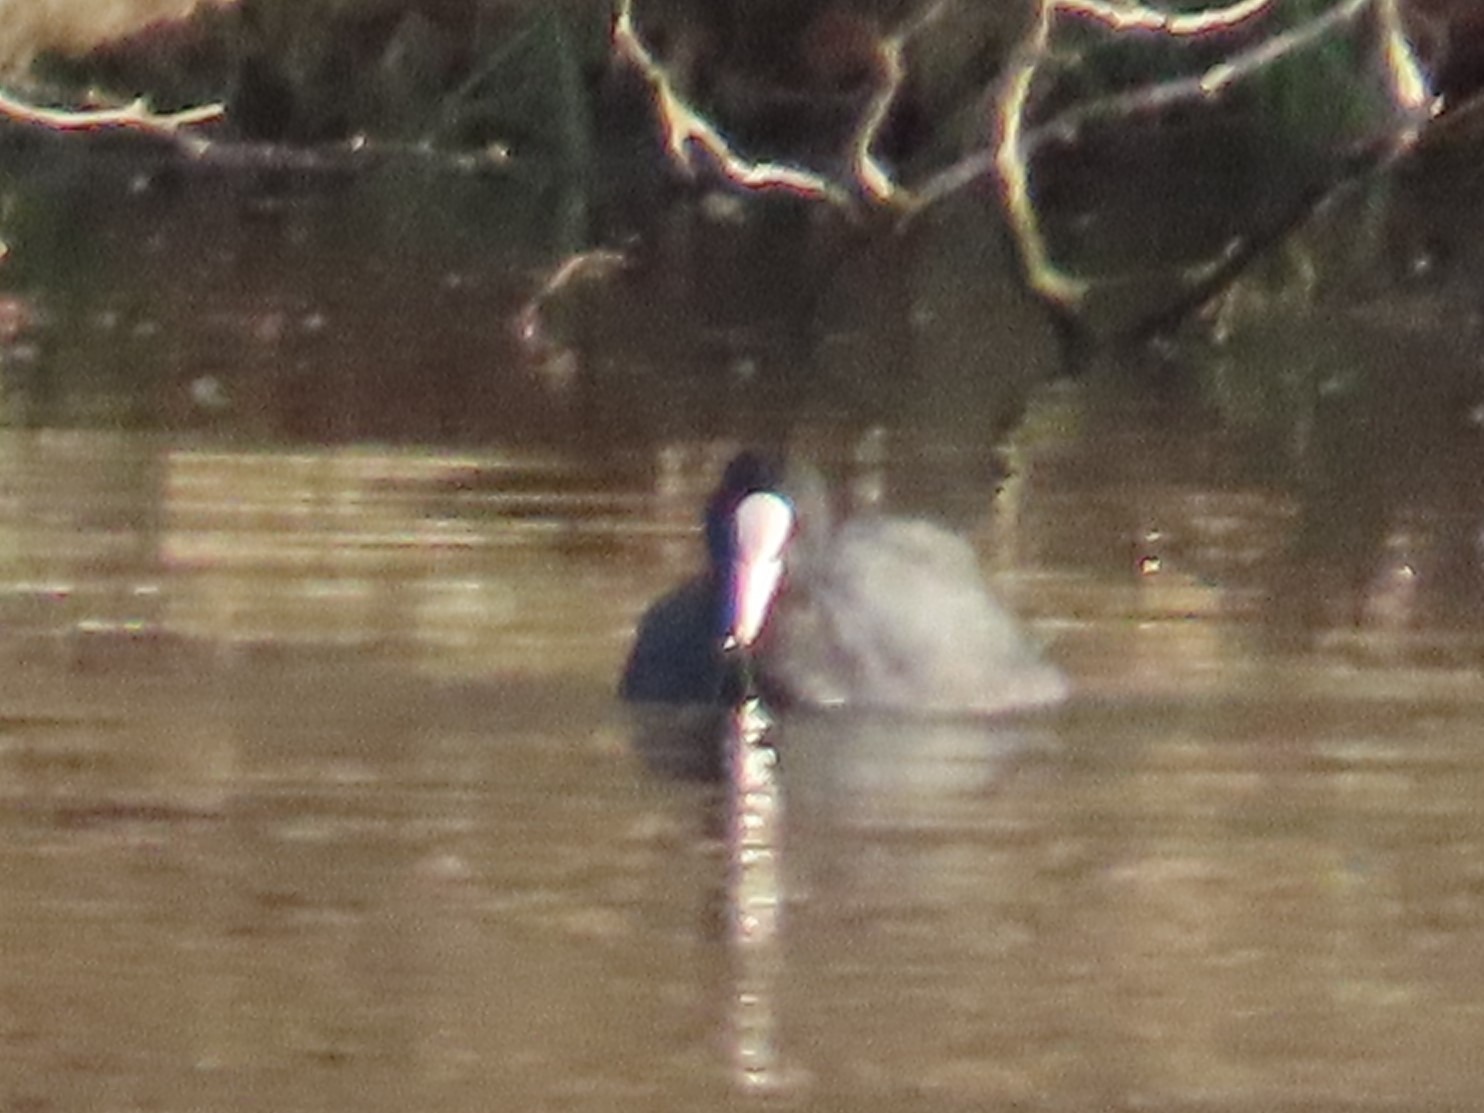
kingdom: Animalia
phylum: Chordata
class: Aves
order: Gruiformes
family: Rallidae
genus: Fulica
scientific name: Fulica atra
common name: Blishøne
